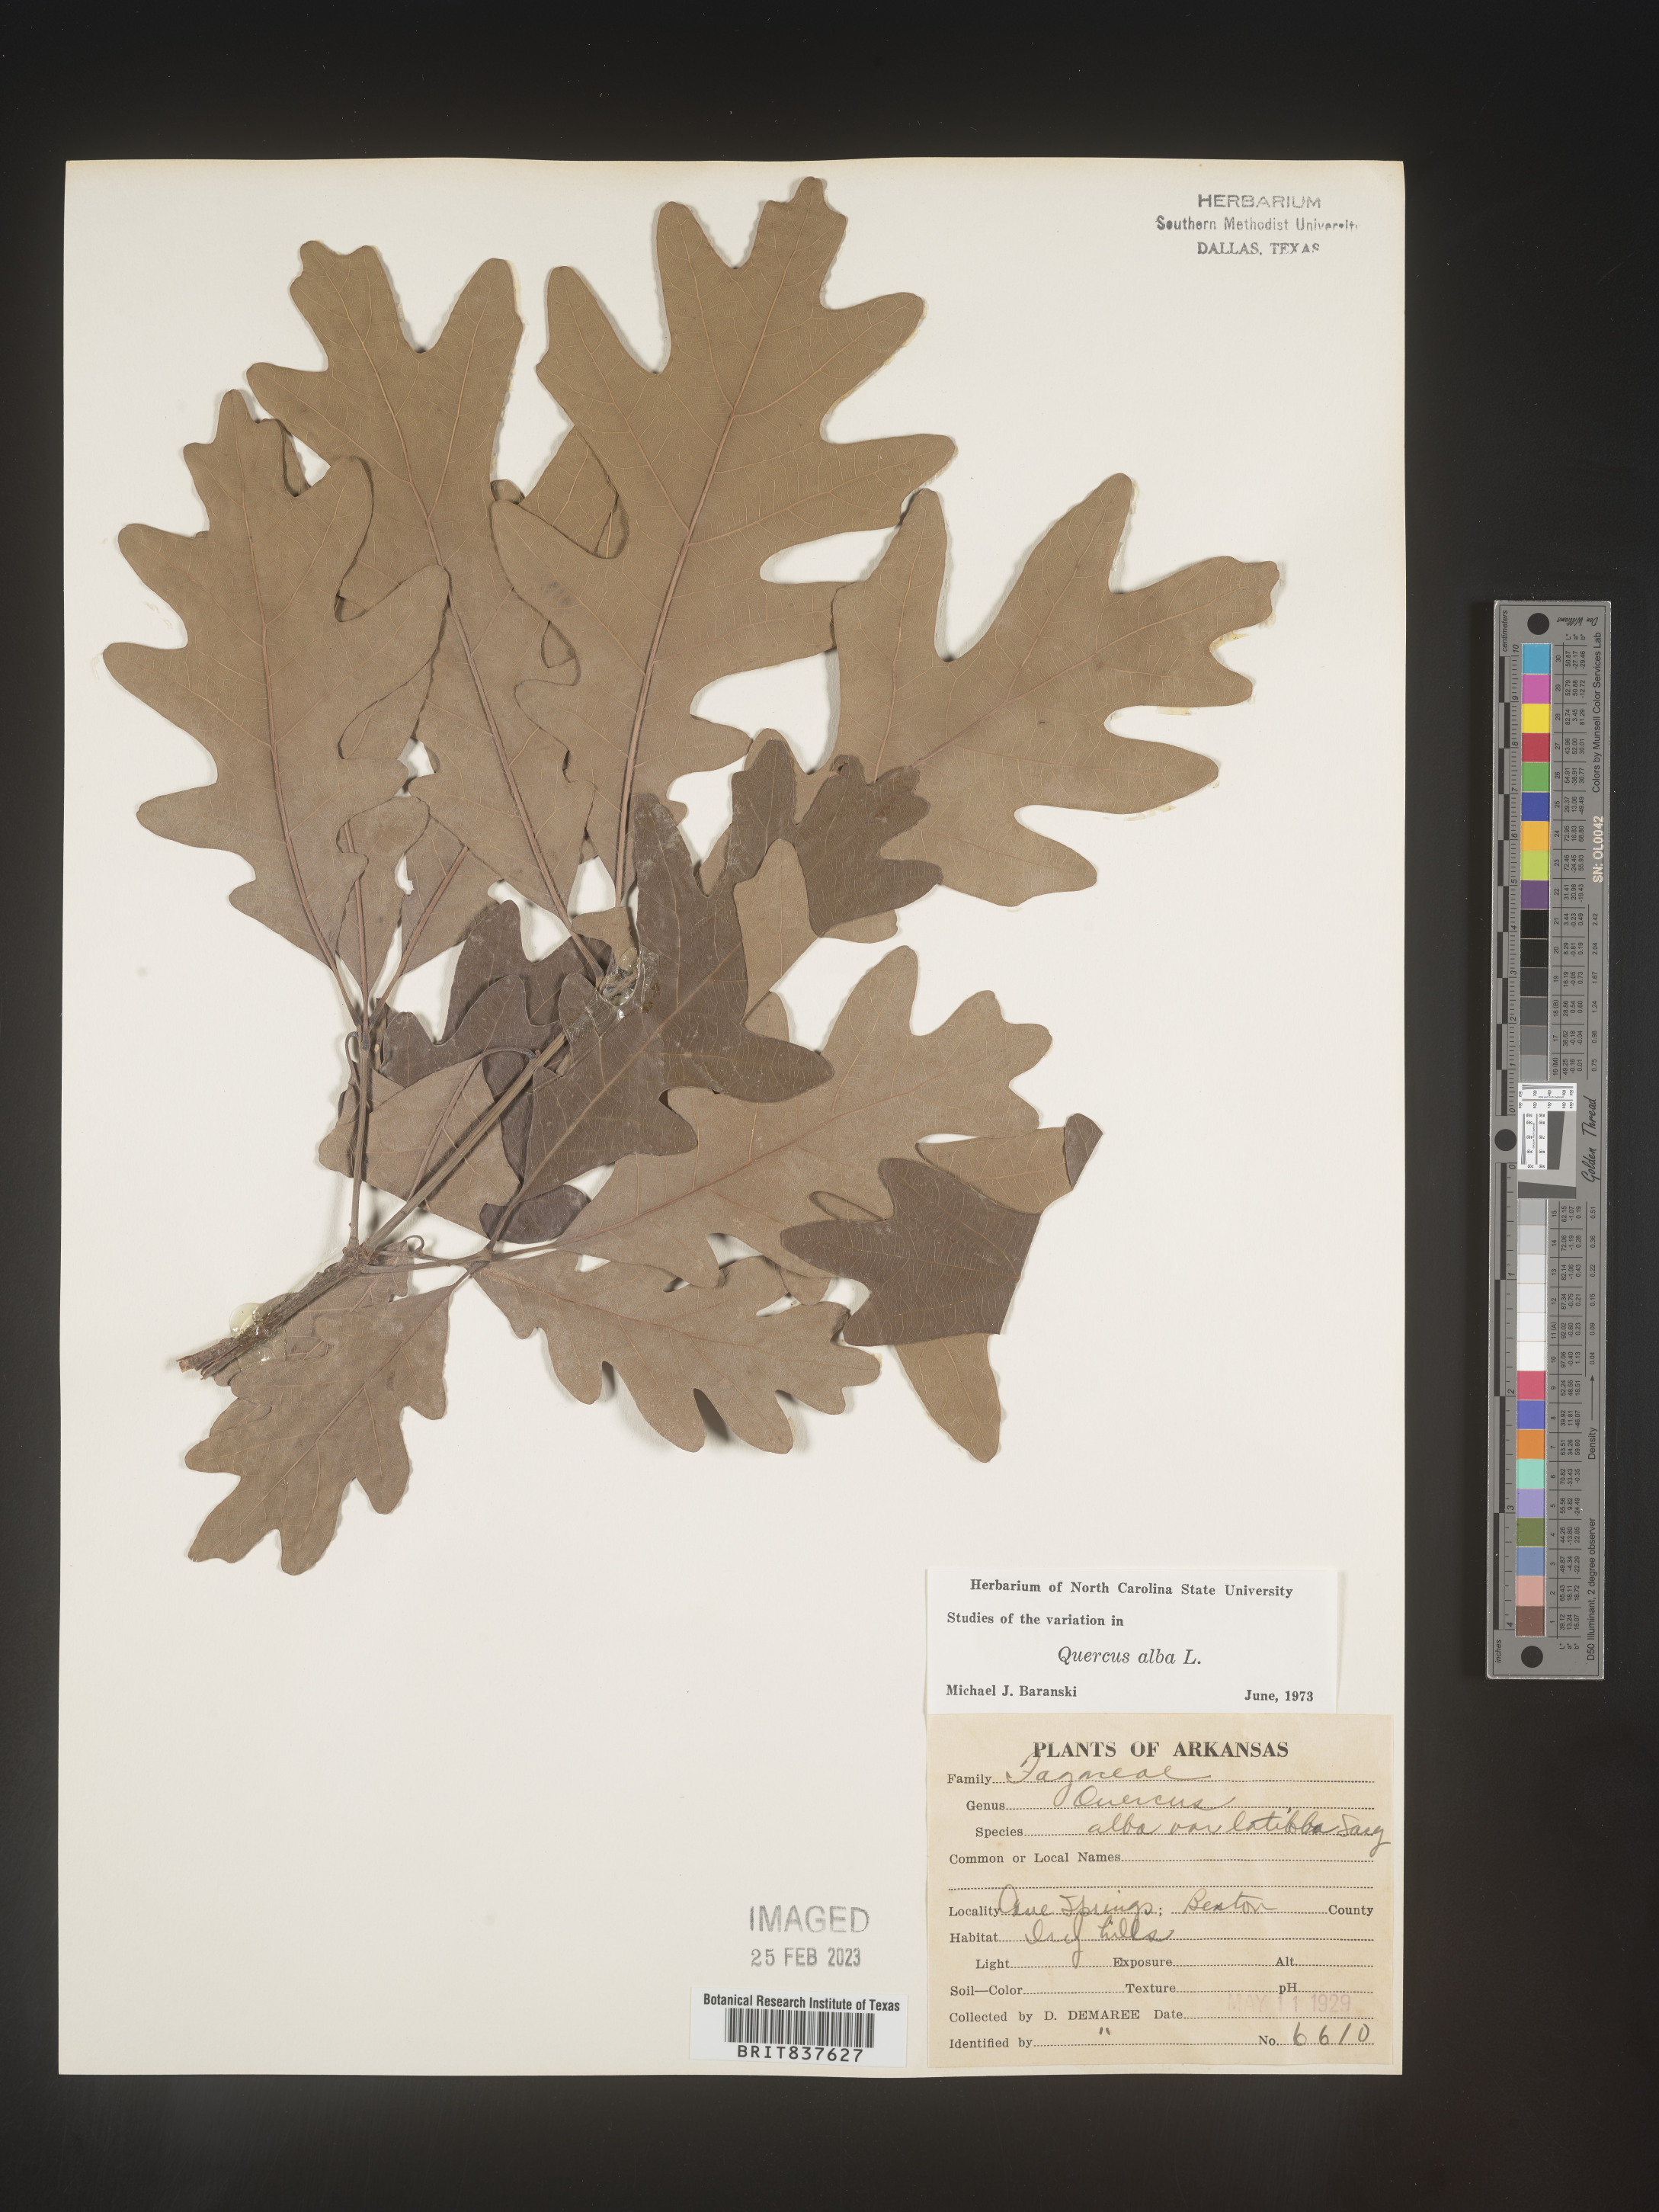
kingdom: Plantae
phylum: Tracheophyta
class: Magnoliopsida
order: Fagales
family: Fagaceae
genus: Quercus
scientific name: Quercus alba
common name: White oak
